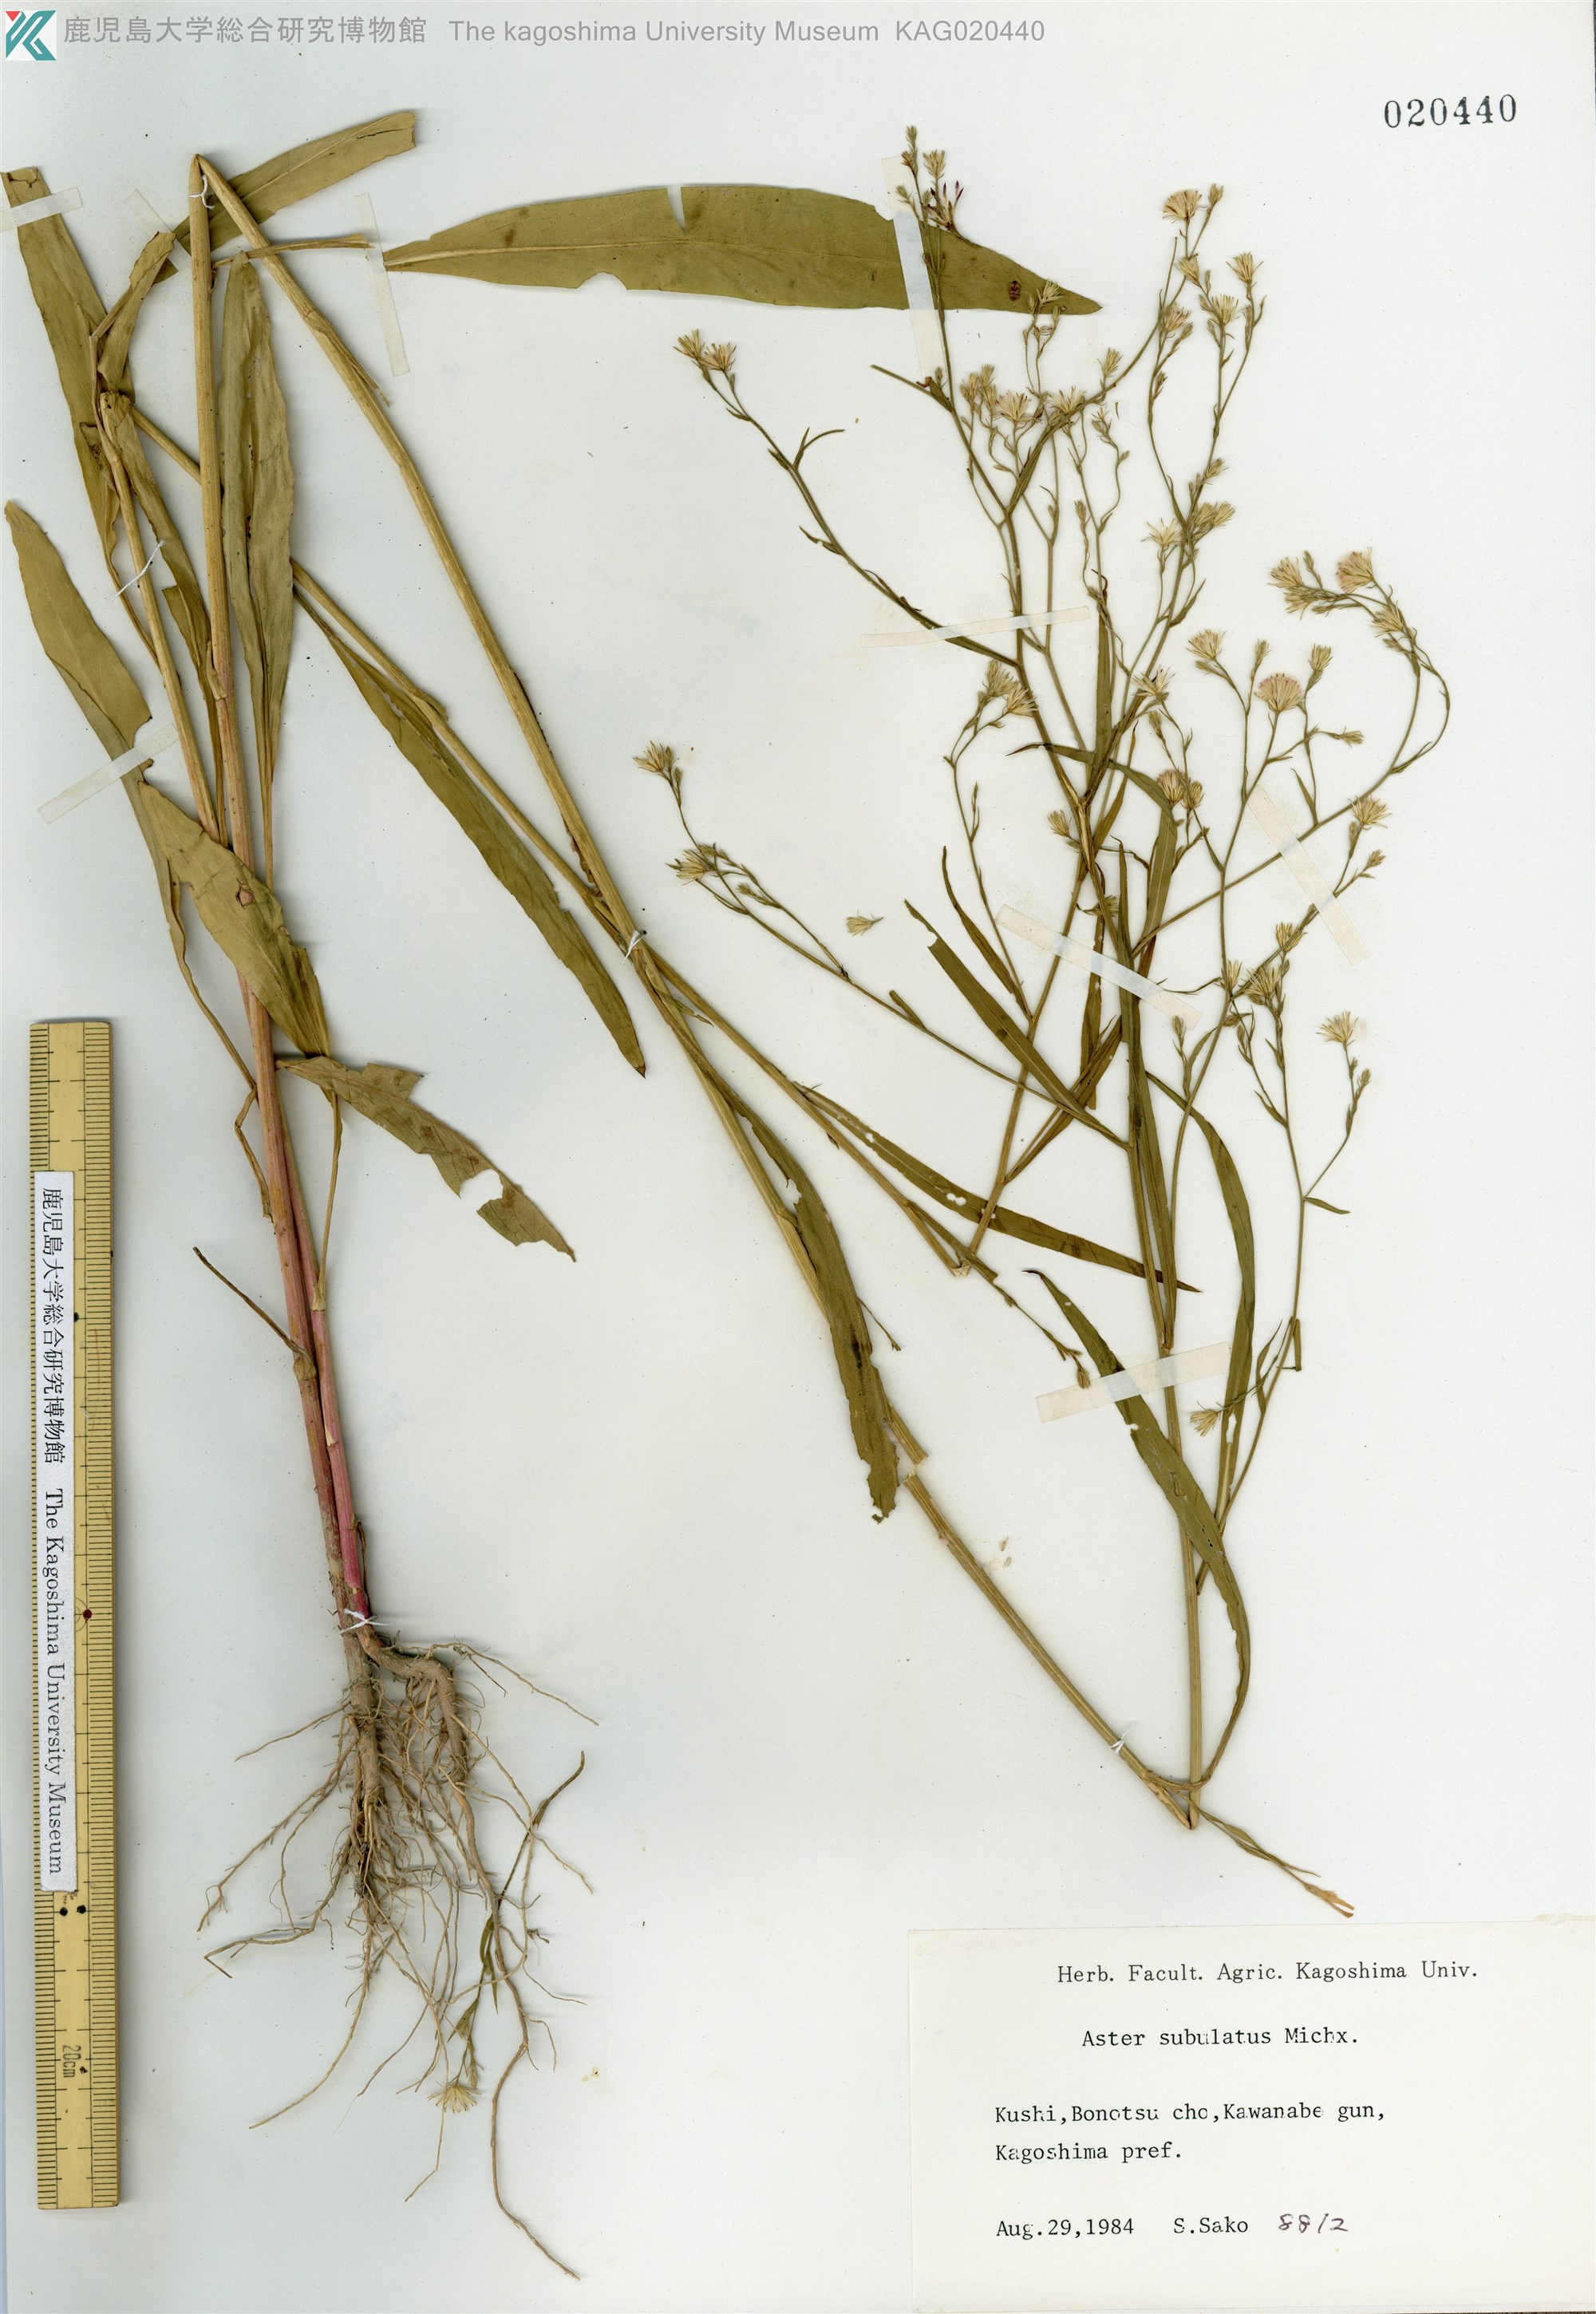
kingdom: Plantae
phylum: Tracheophyta
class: Magnoliopsida
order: Asterales
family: Asteraceae
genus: Symphyotrichum
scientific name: Symphyotrichum subulatum
